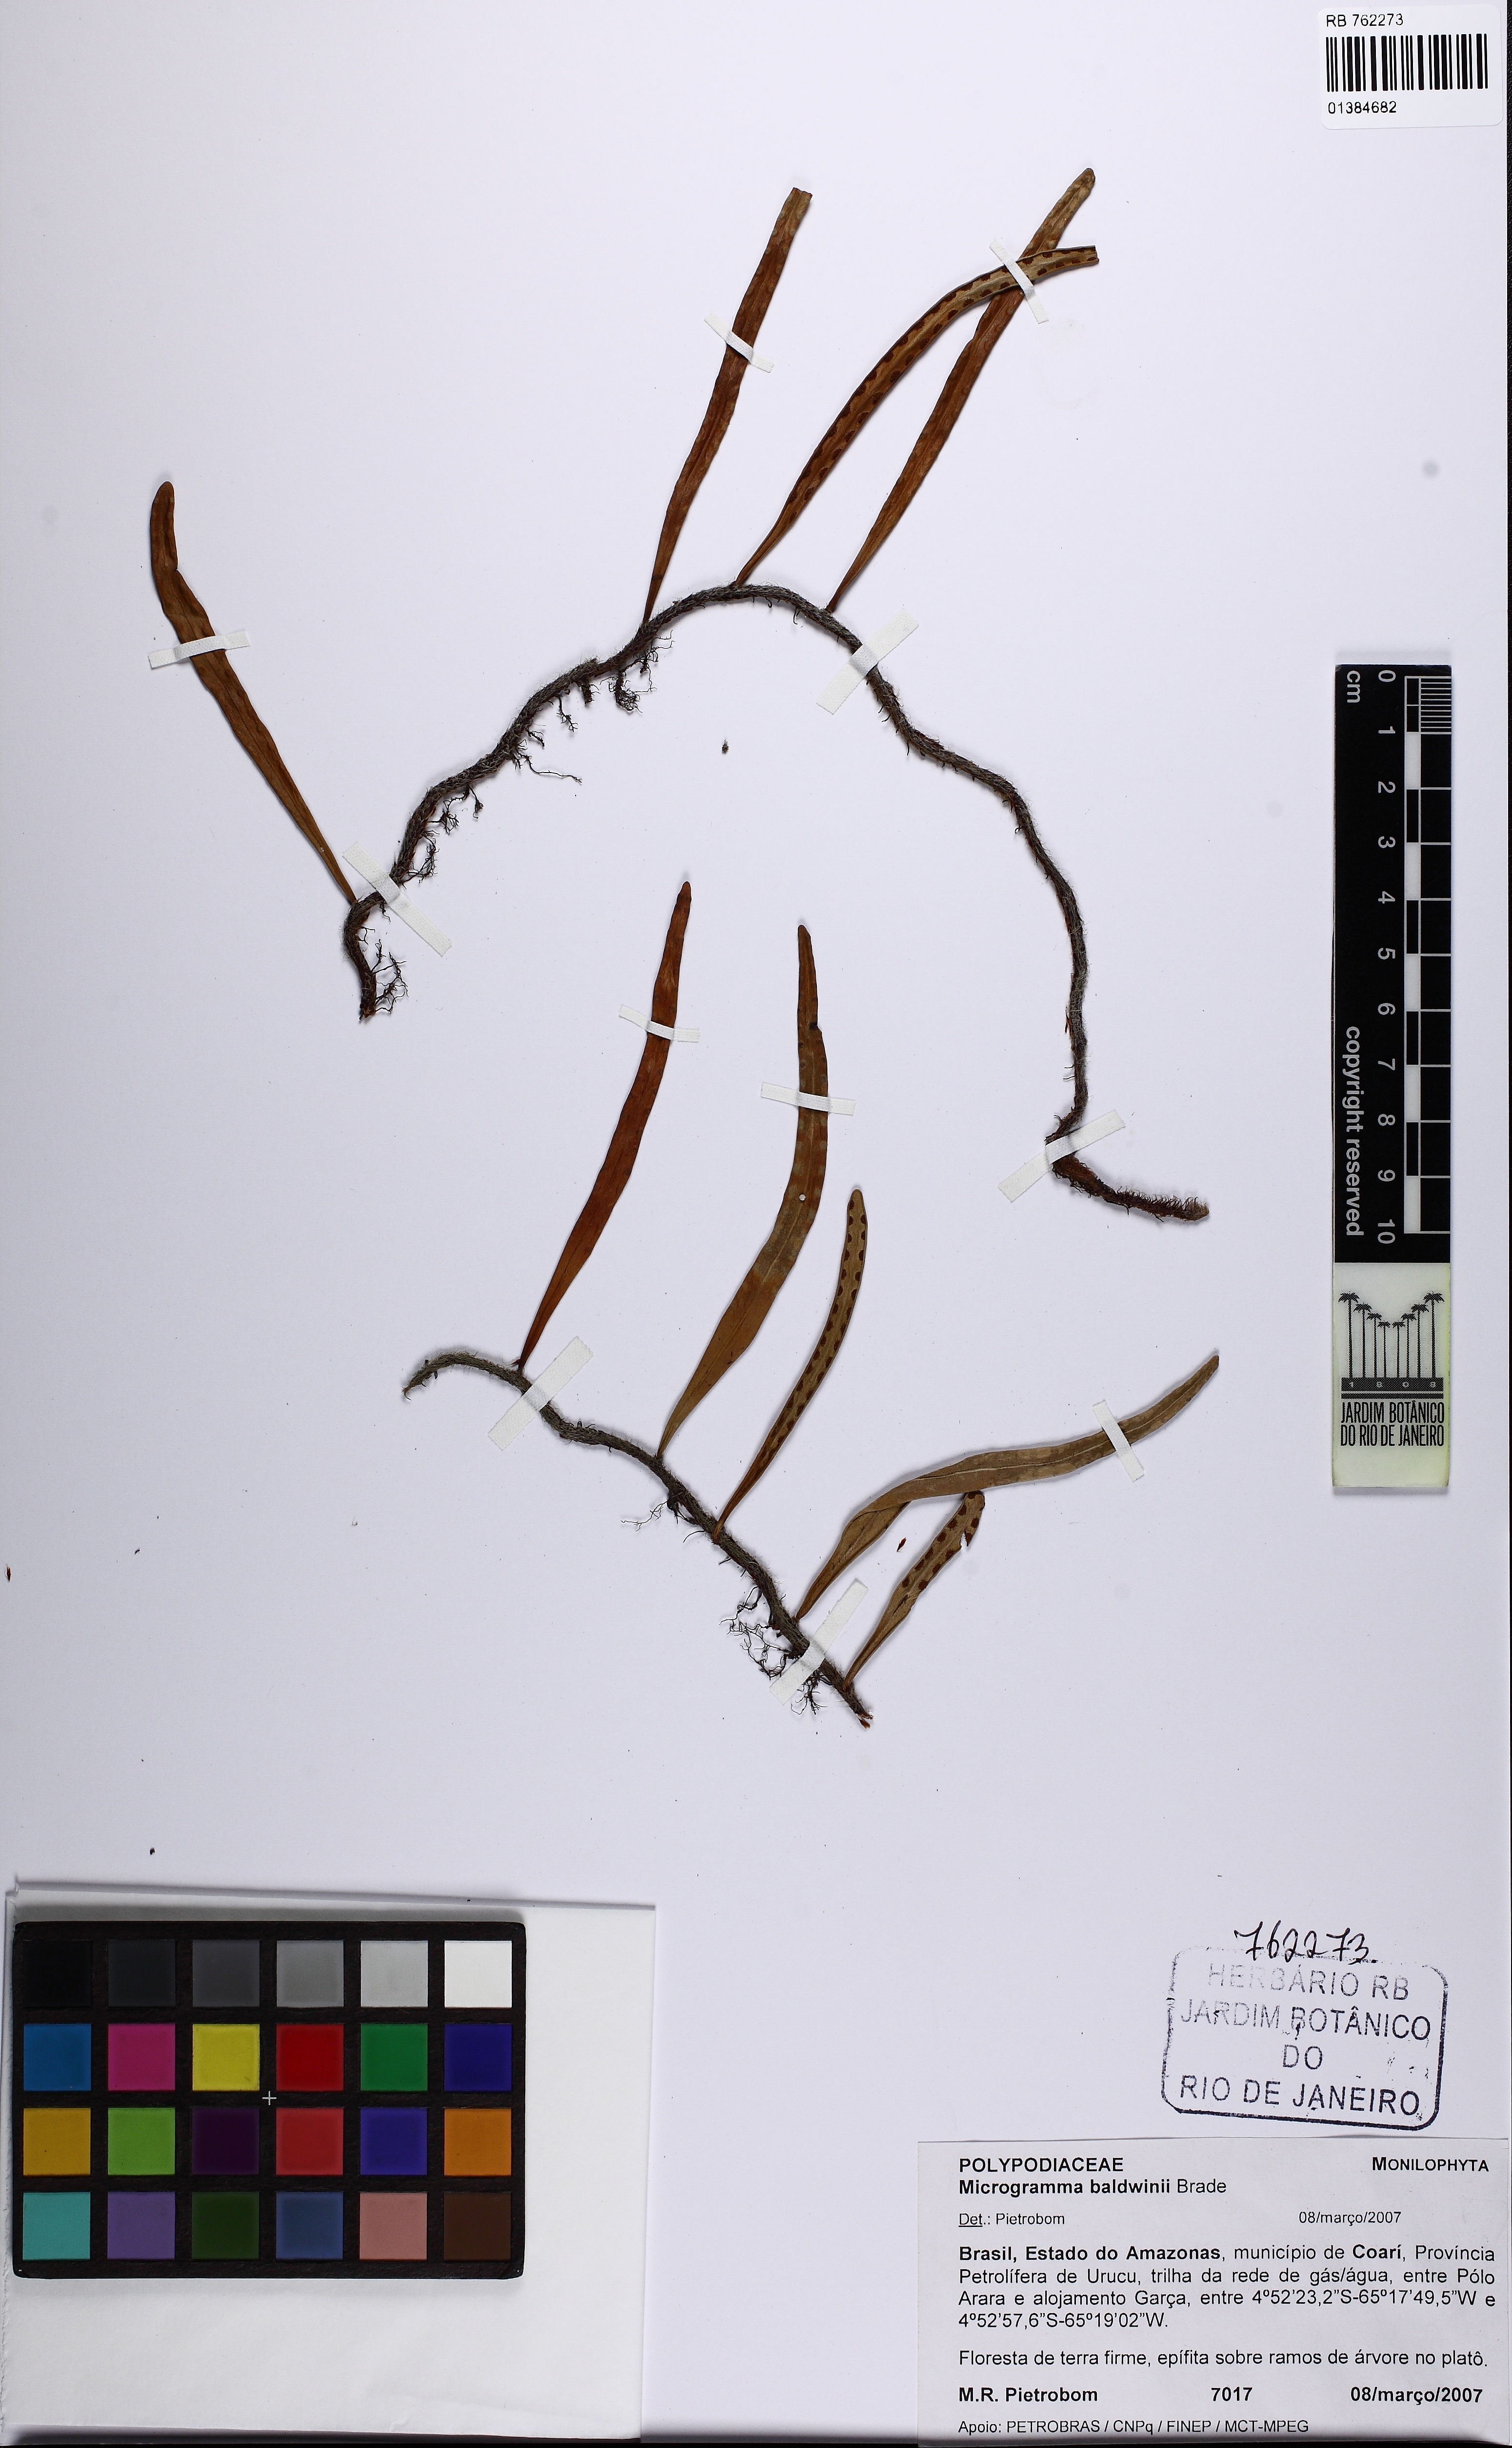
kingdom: Plantae
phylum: Tracheophyta
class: Polypodiopsida
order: Polypodiales
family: Polypodiaceae
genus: Microgramma
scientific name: Microgramma baldwinii
